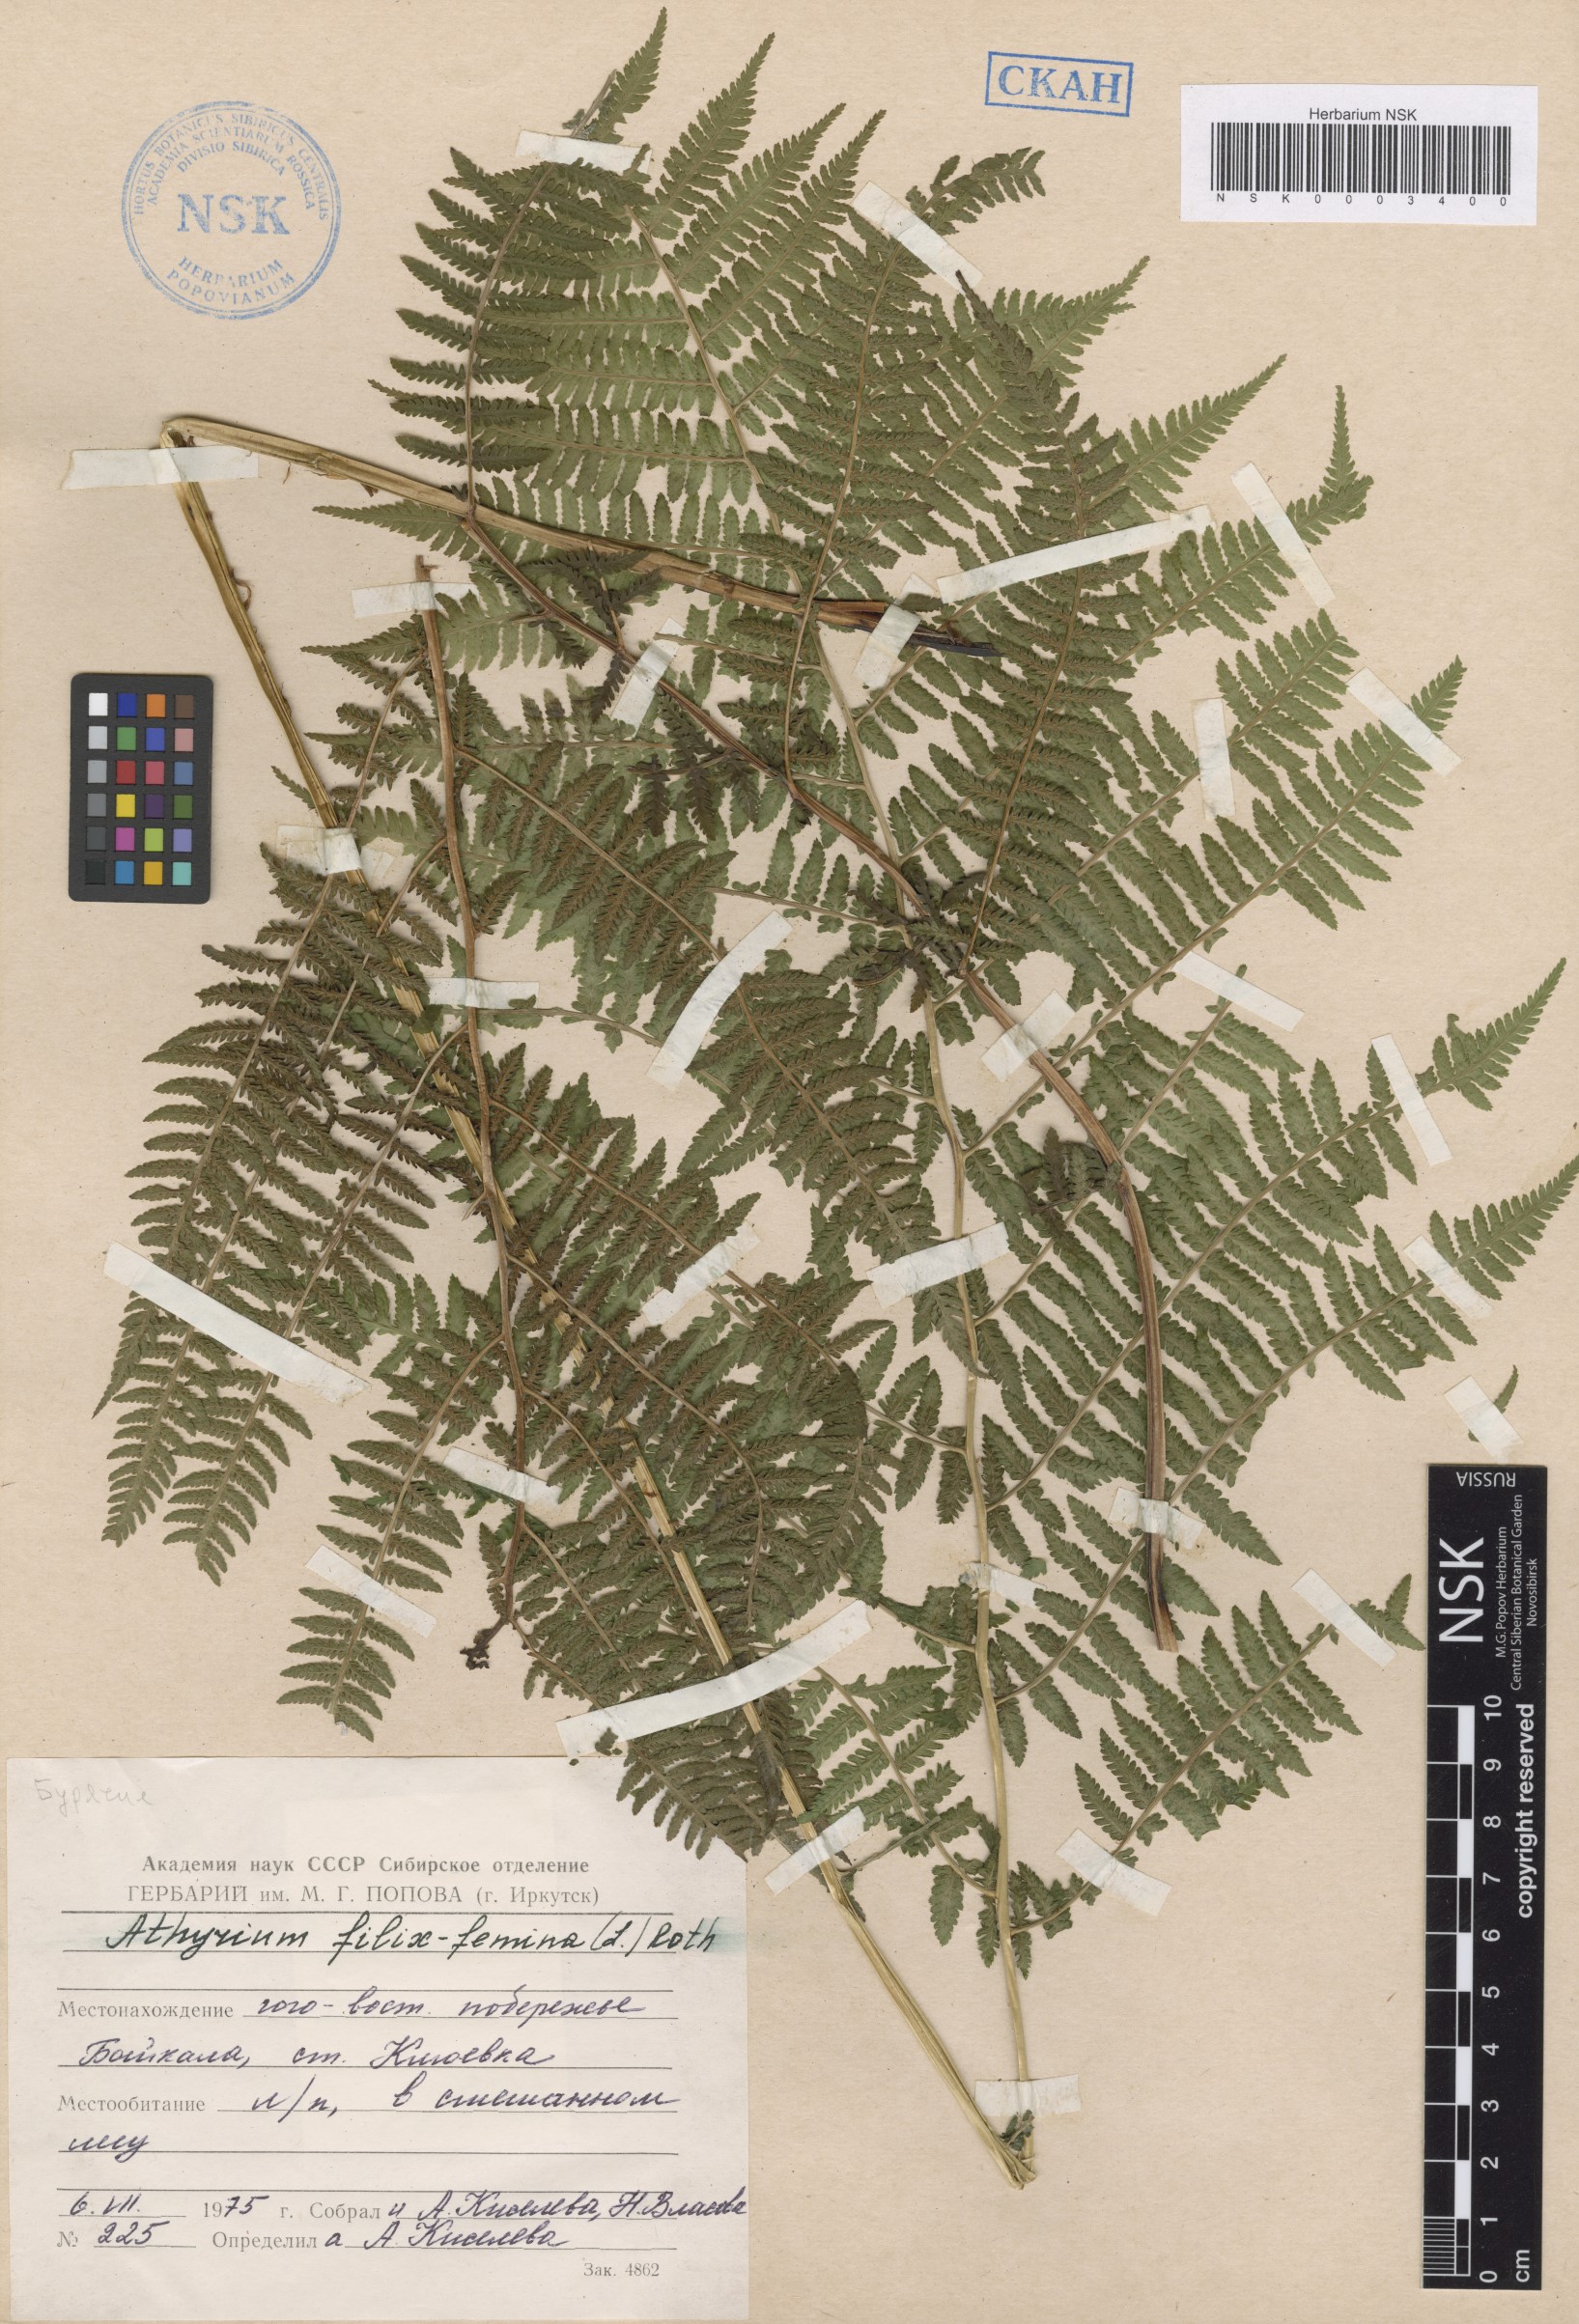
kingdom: Plantae
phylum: Tracheophyta
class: Polypodiopsida
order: Polypodiales
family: Athyriaceae
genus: Athyrium
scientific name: Athyrium filix-femina
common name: Lady fern
